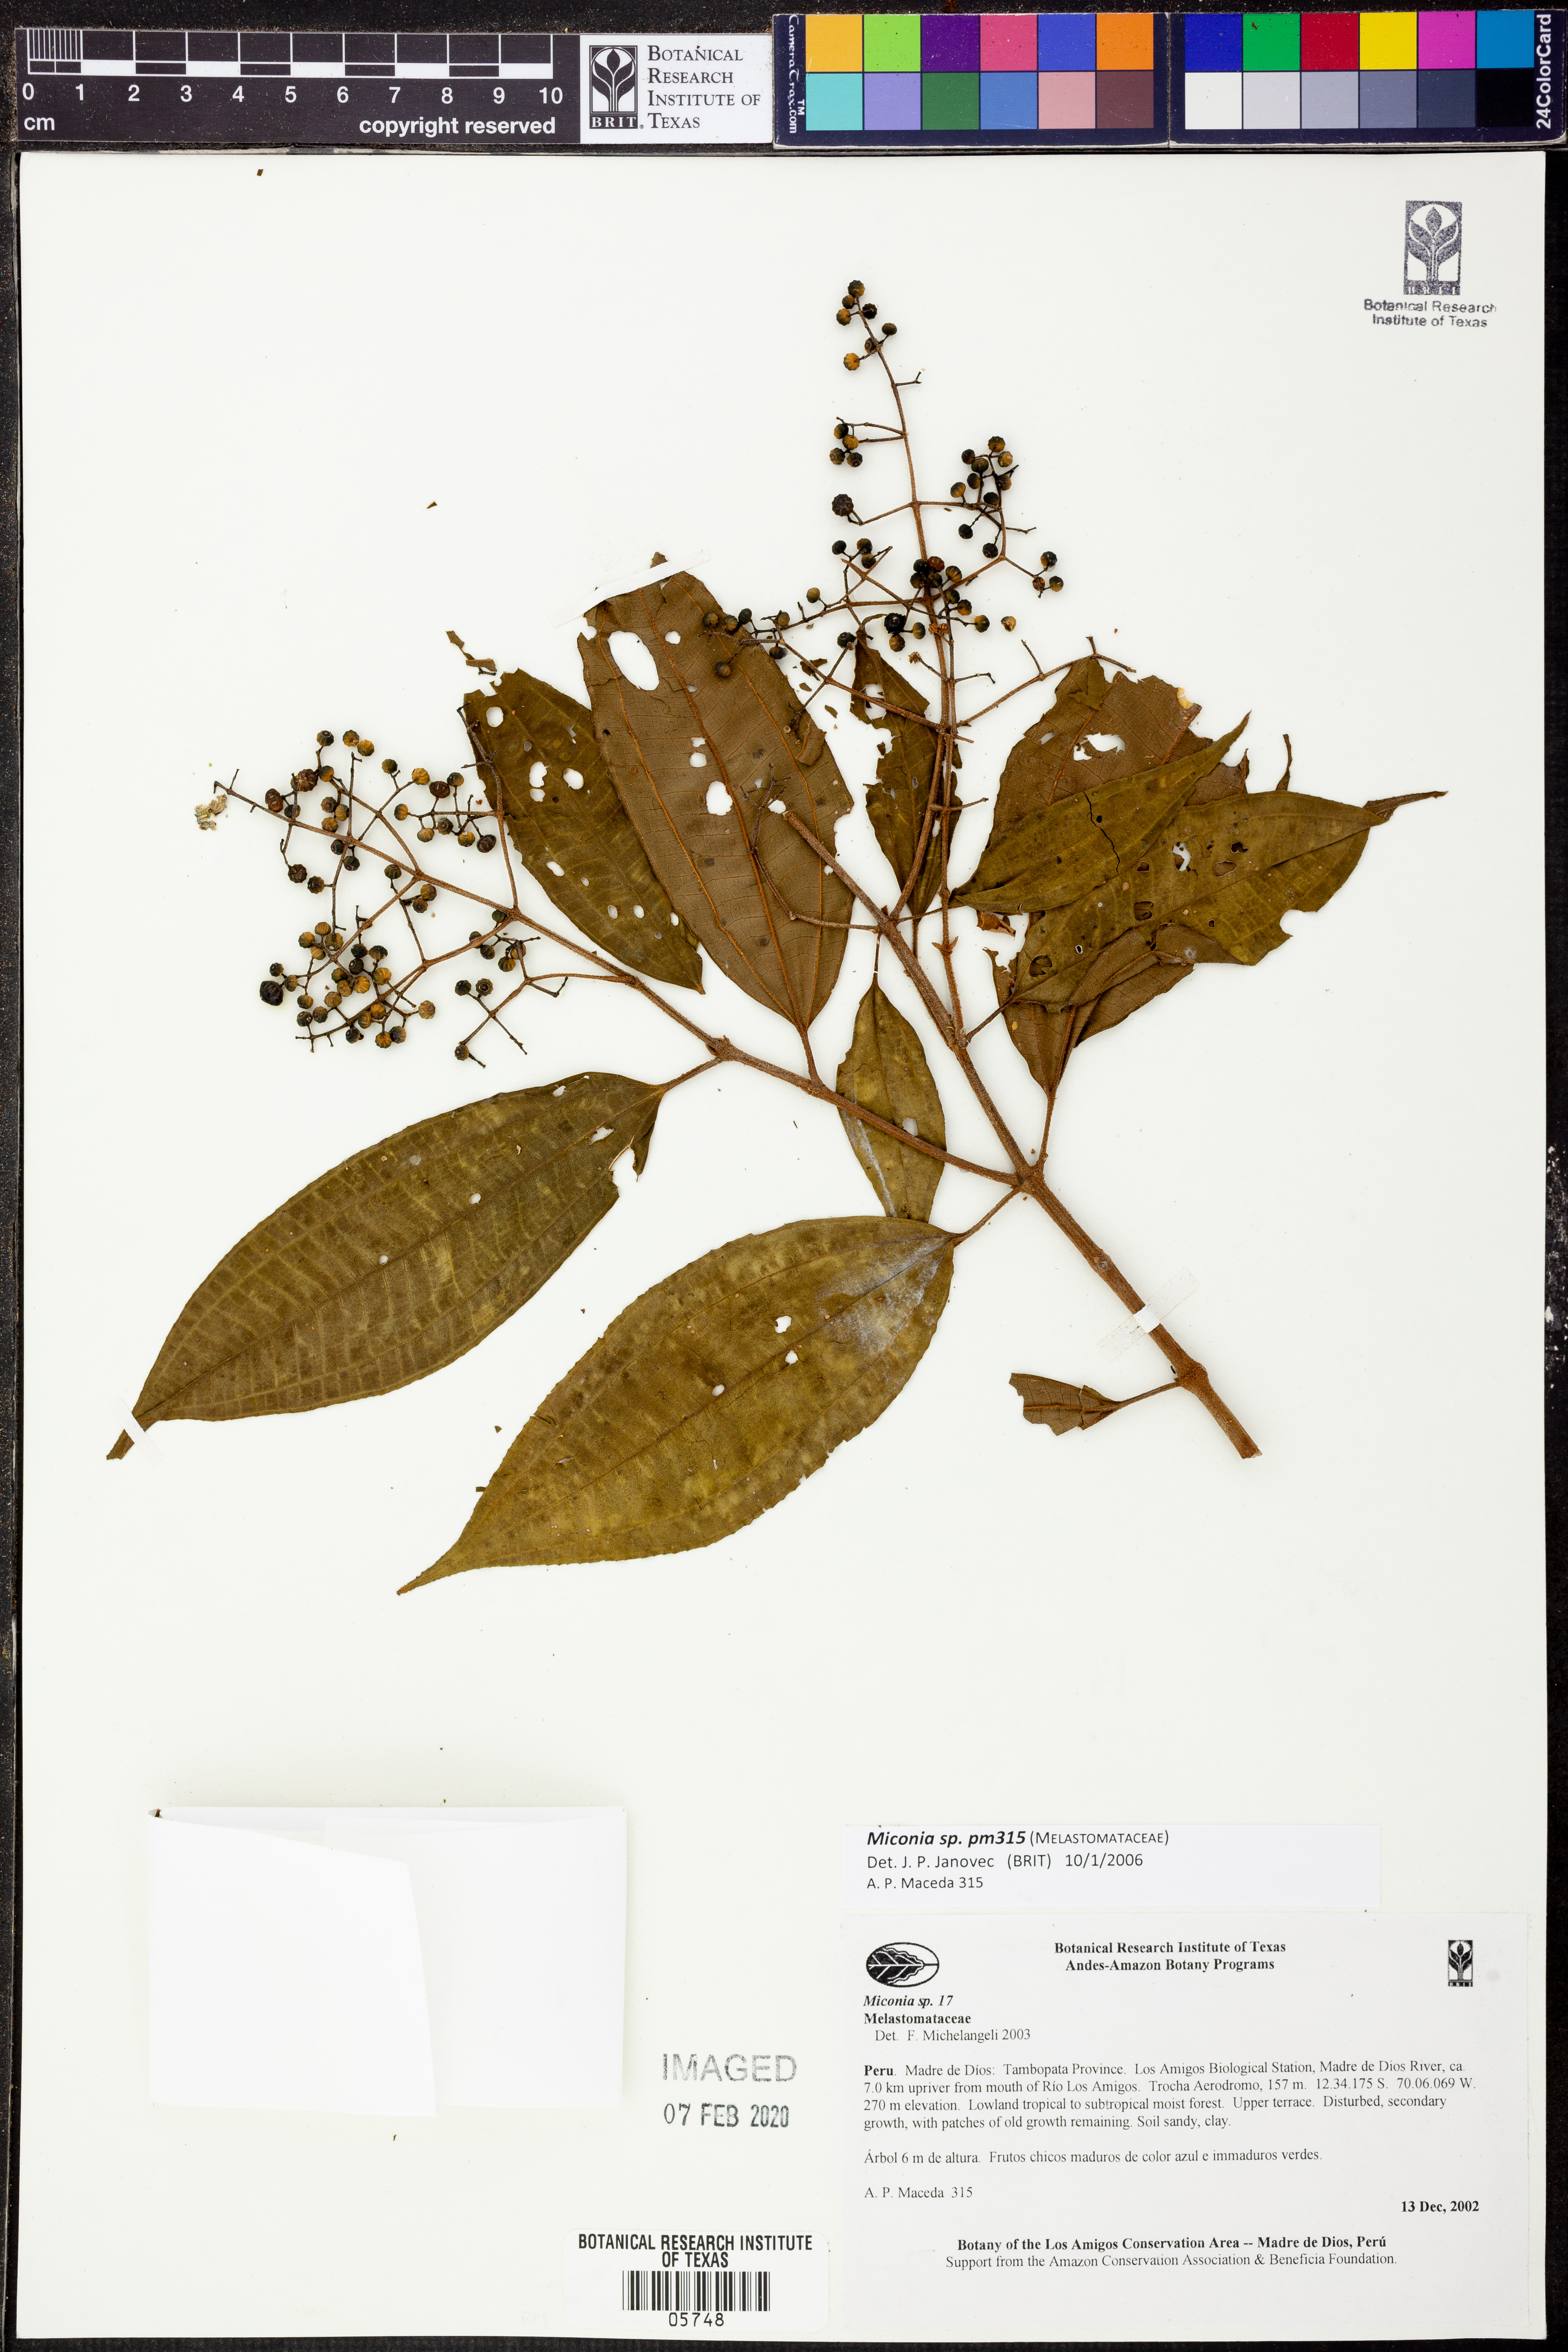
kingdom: Plantae
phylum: Tracheophyta
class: Magnoliopsida
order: Myrtales
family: Melastomataceae
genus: Miconia
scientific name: Miconia
